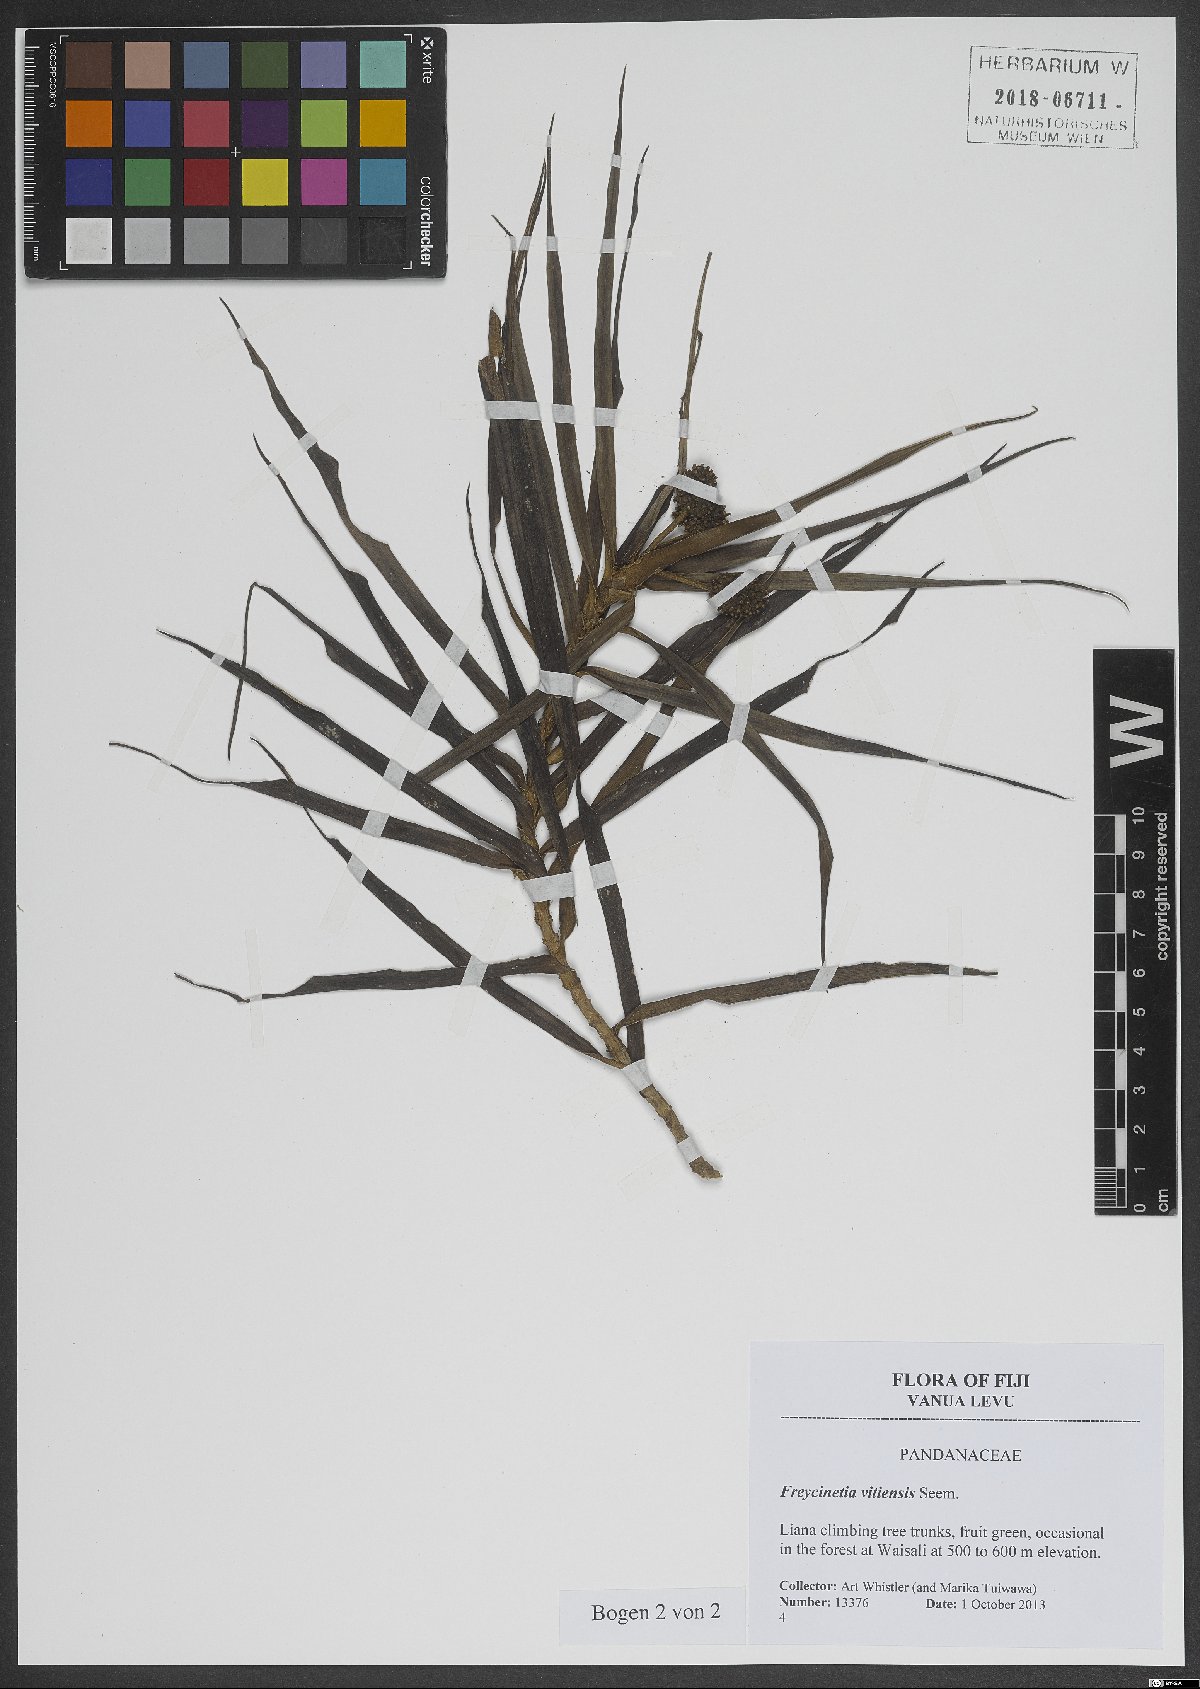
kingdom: Plantae
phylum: Tracheophyta
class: Liliopsida
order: Pandanales
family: Pandanaceae
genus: Freycinetia
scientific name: Freycinetia vitiensis
